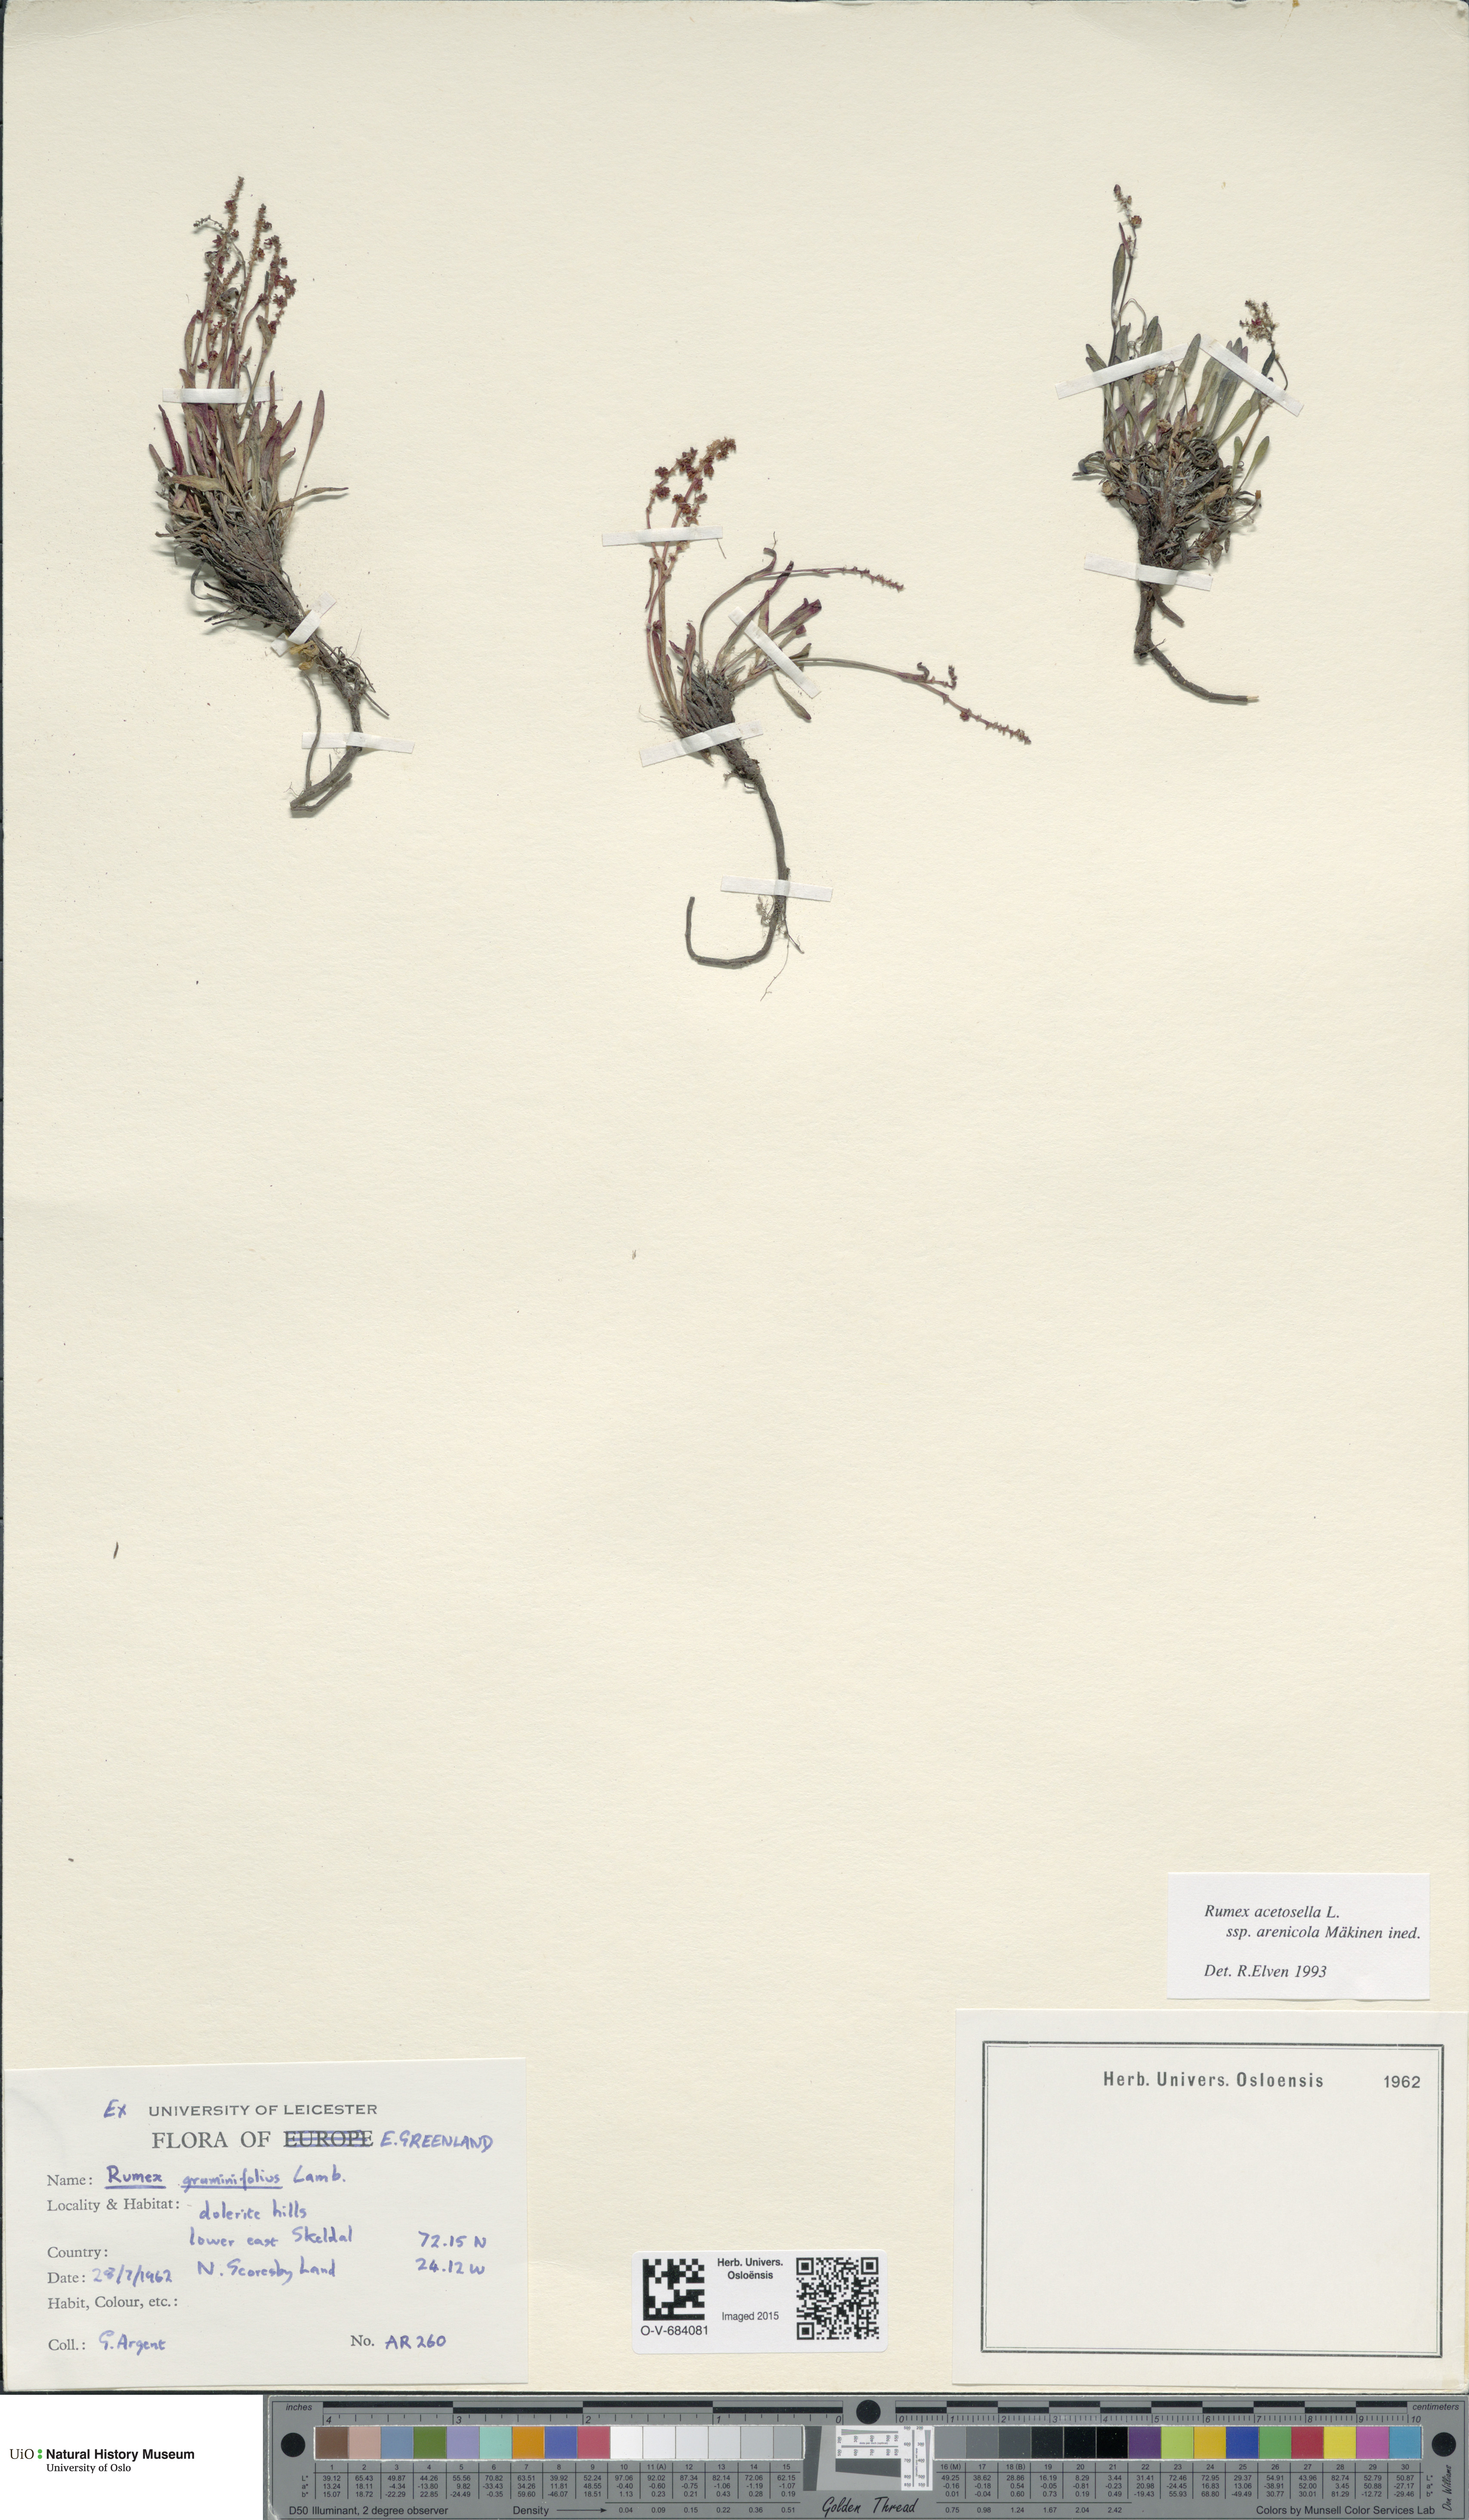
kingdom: Plantae
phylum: Tracheophyta
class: Magnoliopsida
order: Caryophyllales
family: Polygonaceae
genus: Rumex
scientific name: Rumex acetosella
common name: Common sheep sorrel
